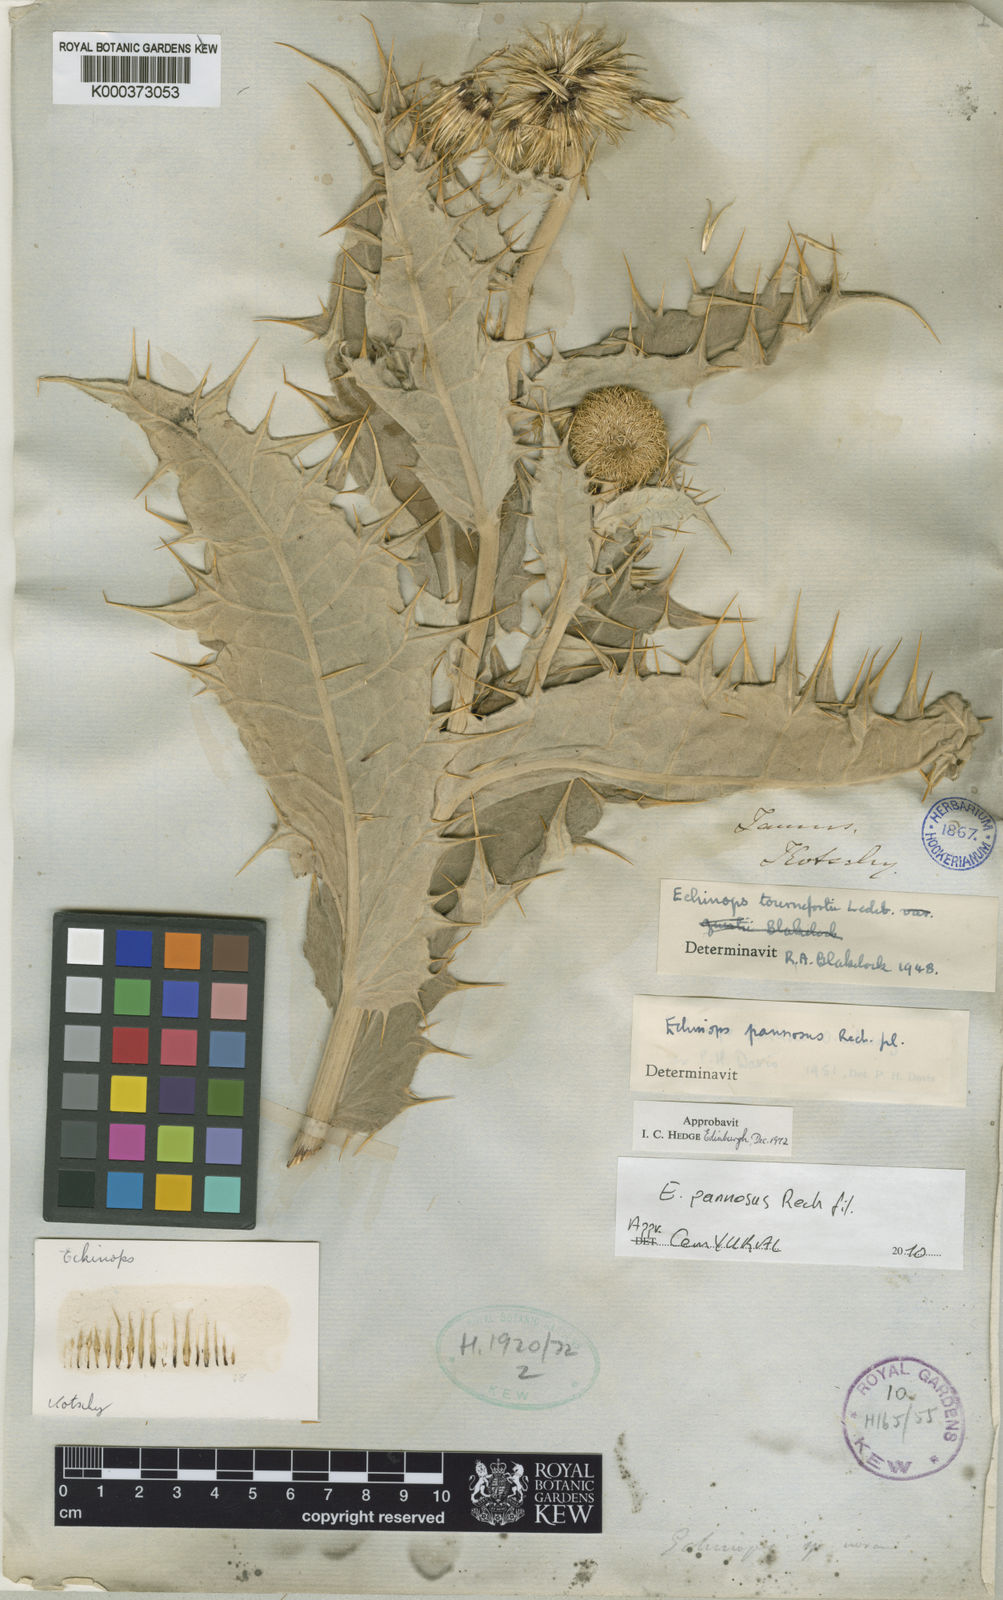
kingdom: Plantae
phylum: Tracheophyta
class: Magnoliopsida
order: Asterales
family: Asteraceae
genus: Echinops
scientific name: Echinops pannosus
